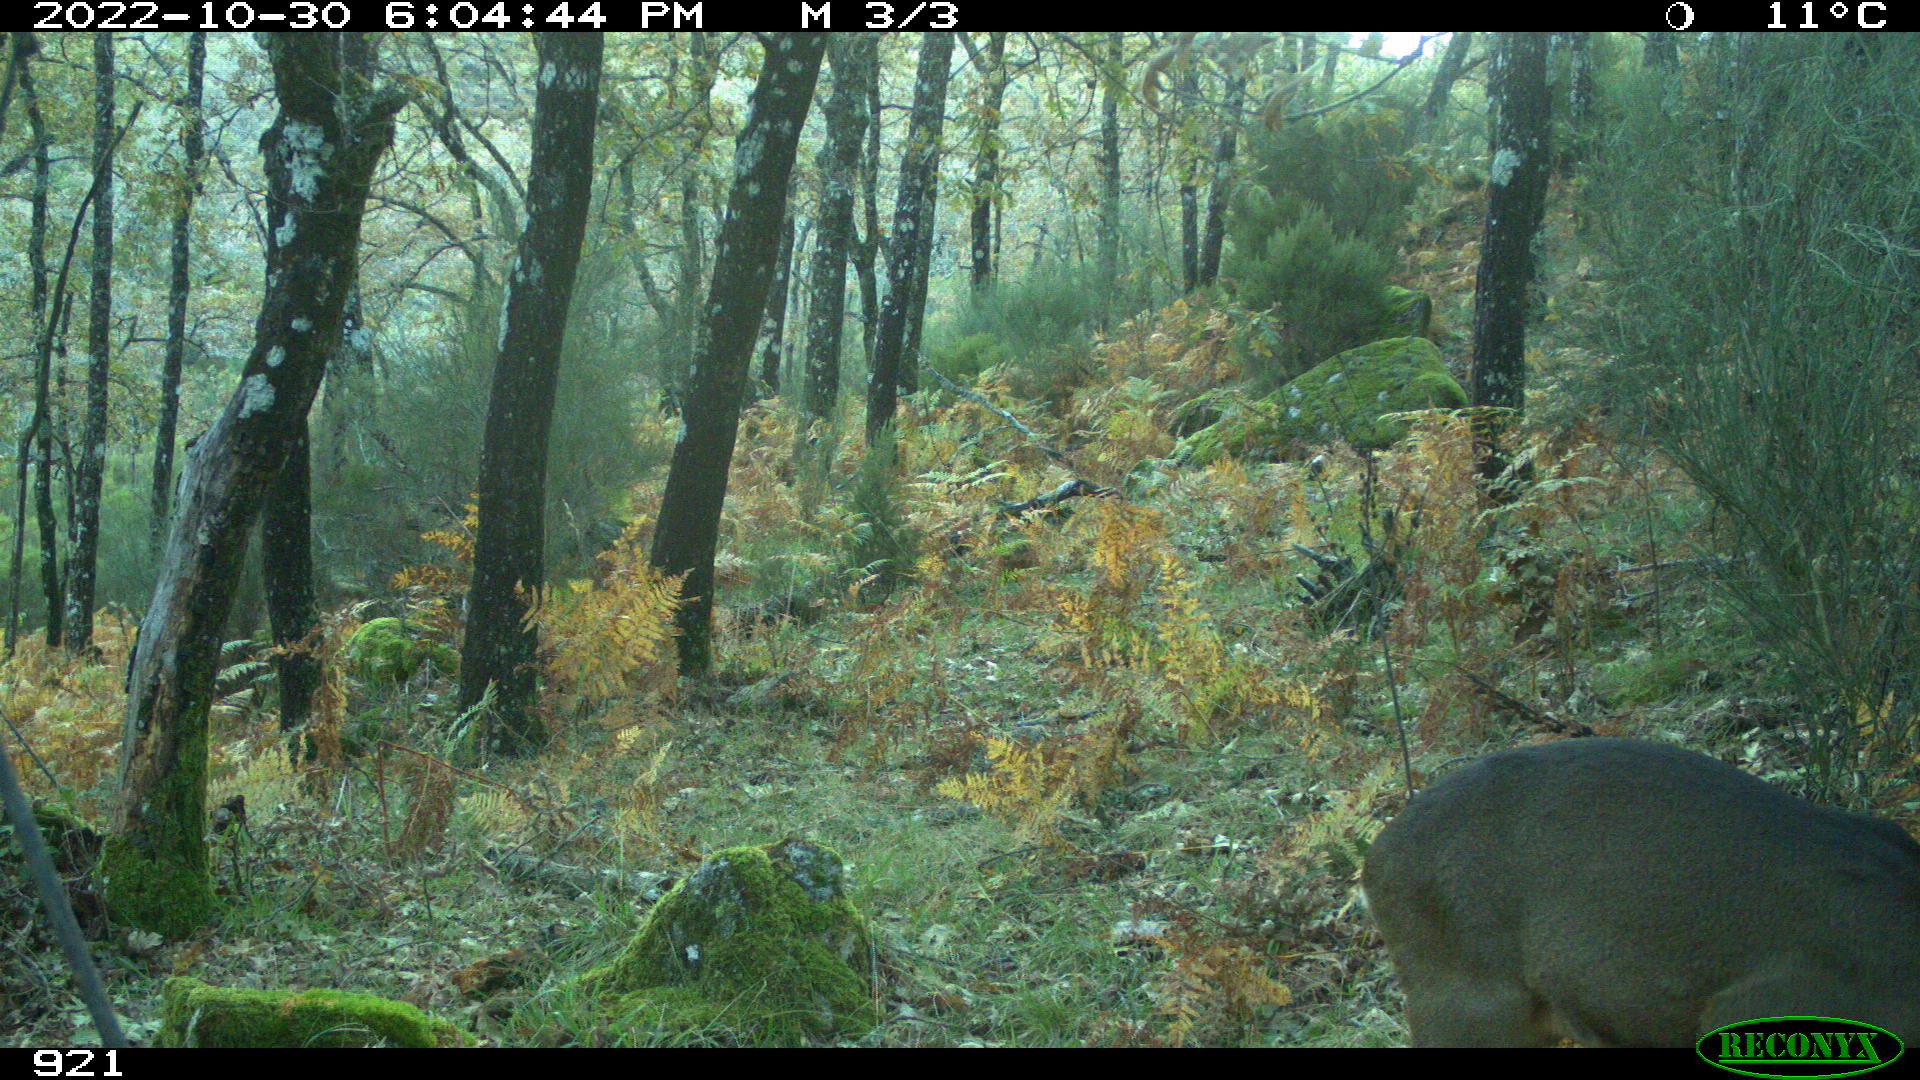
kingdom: Animalia
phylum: Chordata
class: Mammalia
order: Artiodactyla
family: Cervidae
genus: Capreolus
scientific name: Capreolus capreolus
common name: Western roe deer
